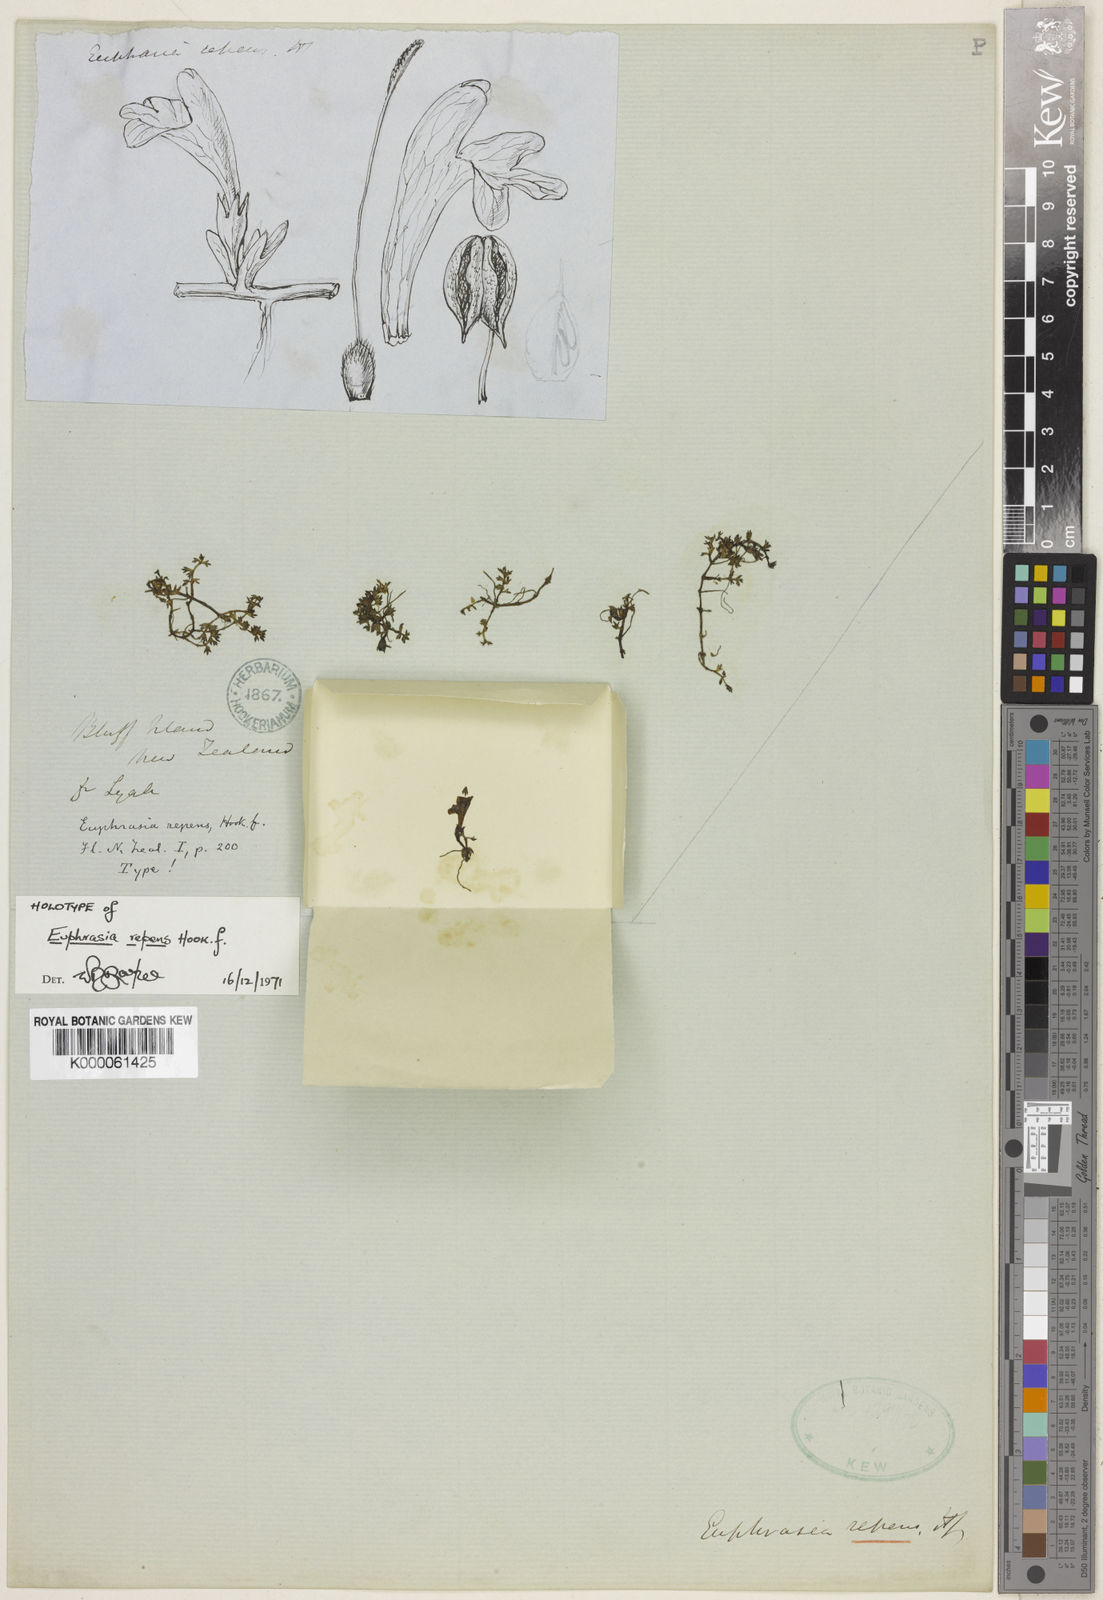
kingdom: Plantae
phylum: Tracheophyta
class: Magnoliopsida
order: Lamiales
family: Orobanchaceae
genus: Euphrasia
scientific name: Euphrasia repens
